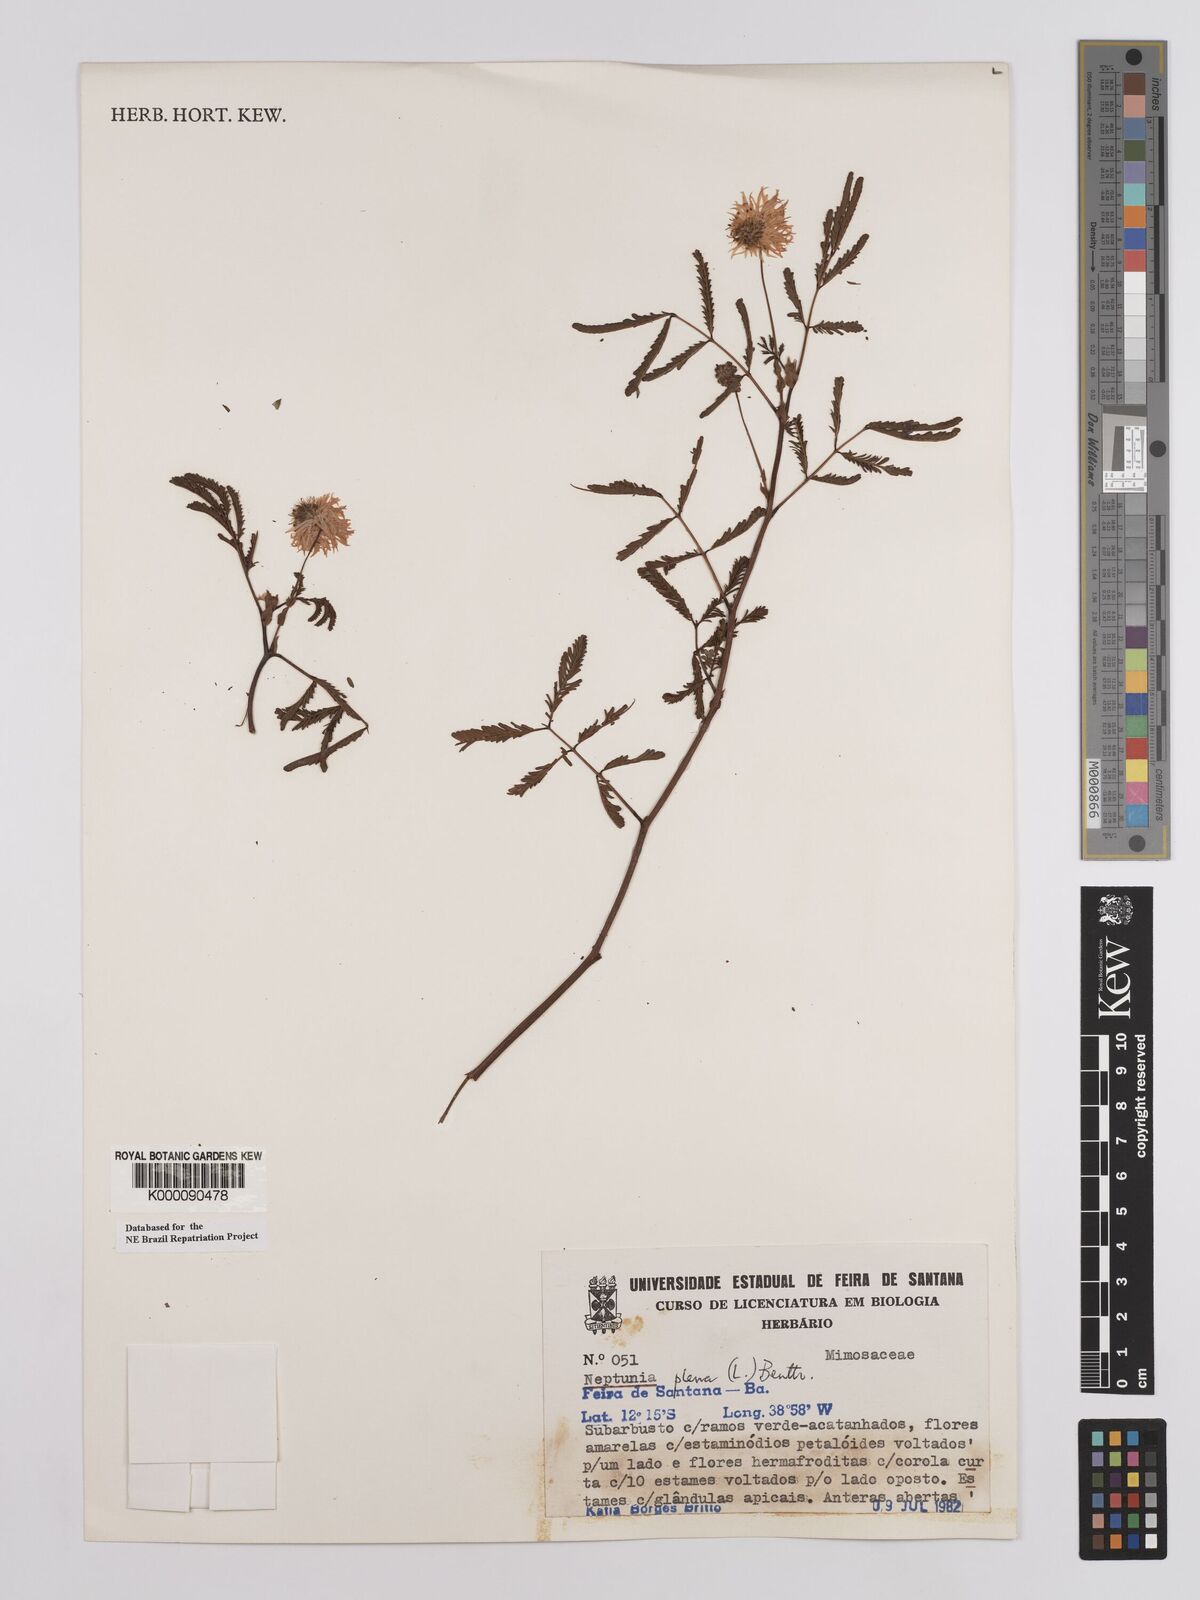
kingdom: Plantae
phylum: Tracheophyta
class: Magnoliopsida
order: Fabales
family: Fabaceae
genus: Neptunia
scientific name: Neptunia plena
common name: Dead and awake
